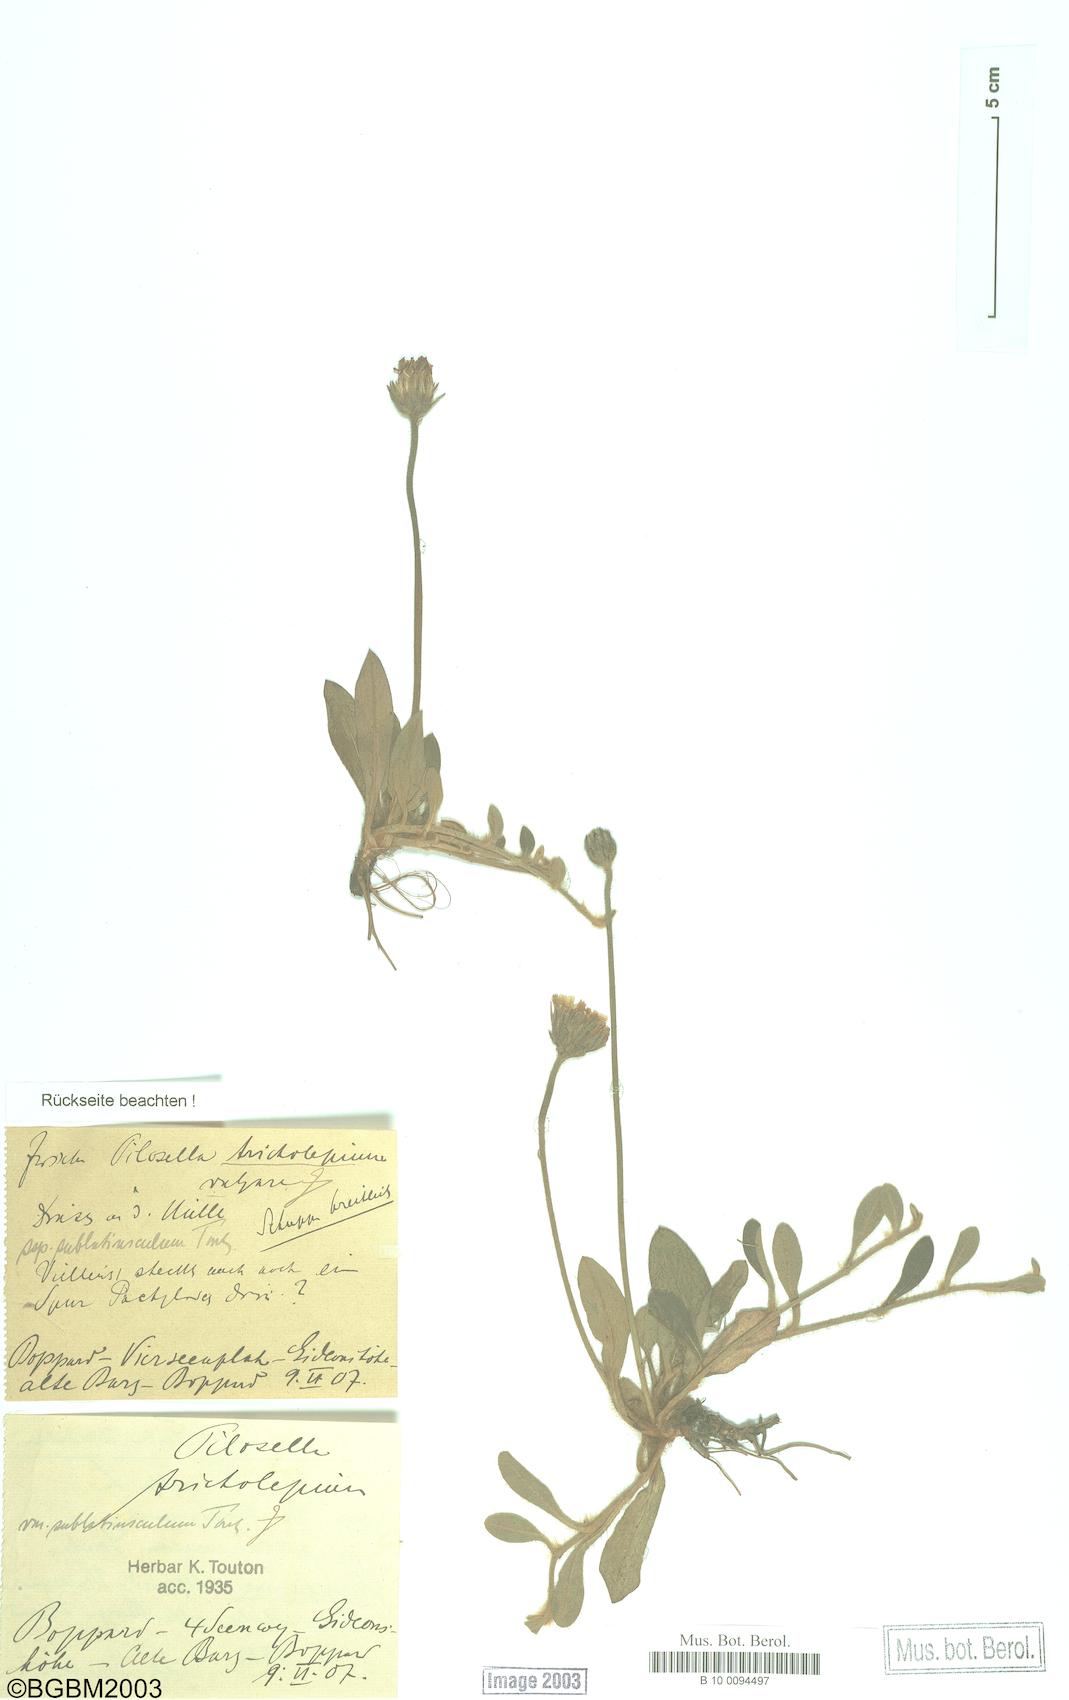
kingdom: Plantae
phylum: Tracheophyta
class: Magnoliopsida
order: Asterales
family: Asteraceae
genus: Pilosella
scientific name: Pilosella officinarum
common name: Mouse-ear hawkweed
